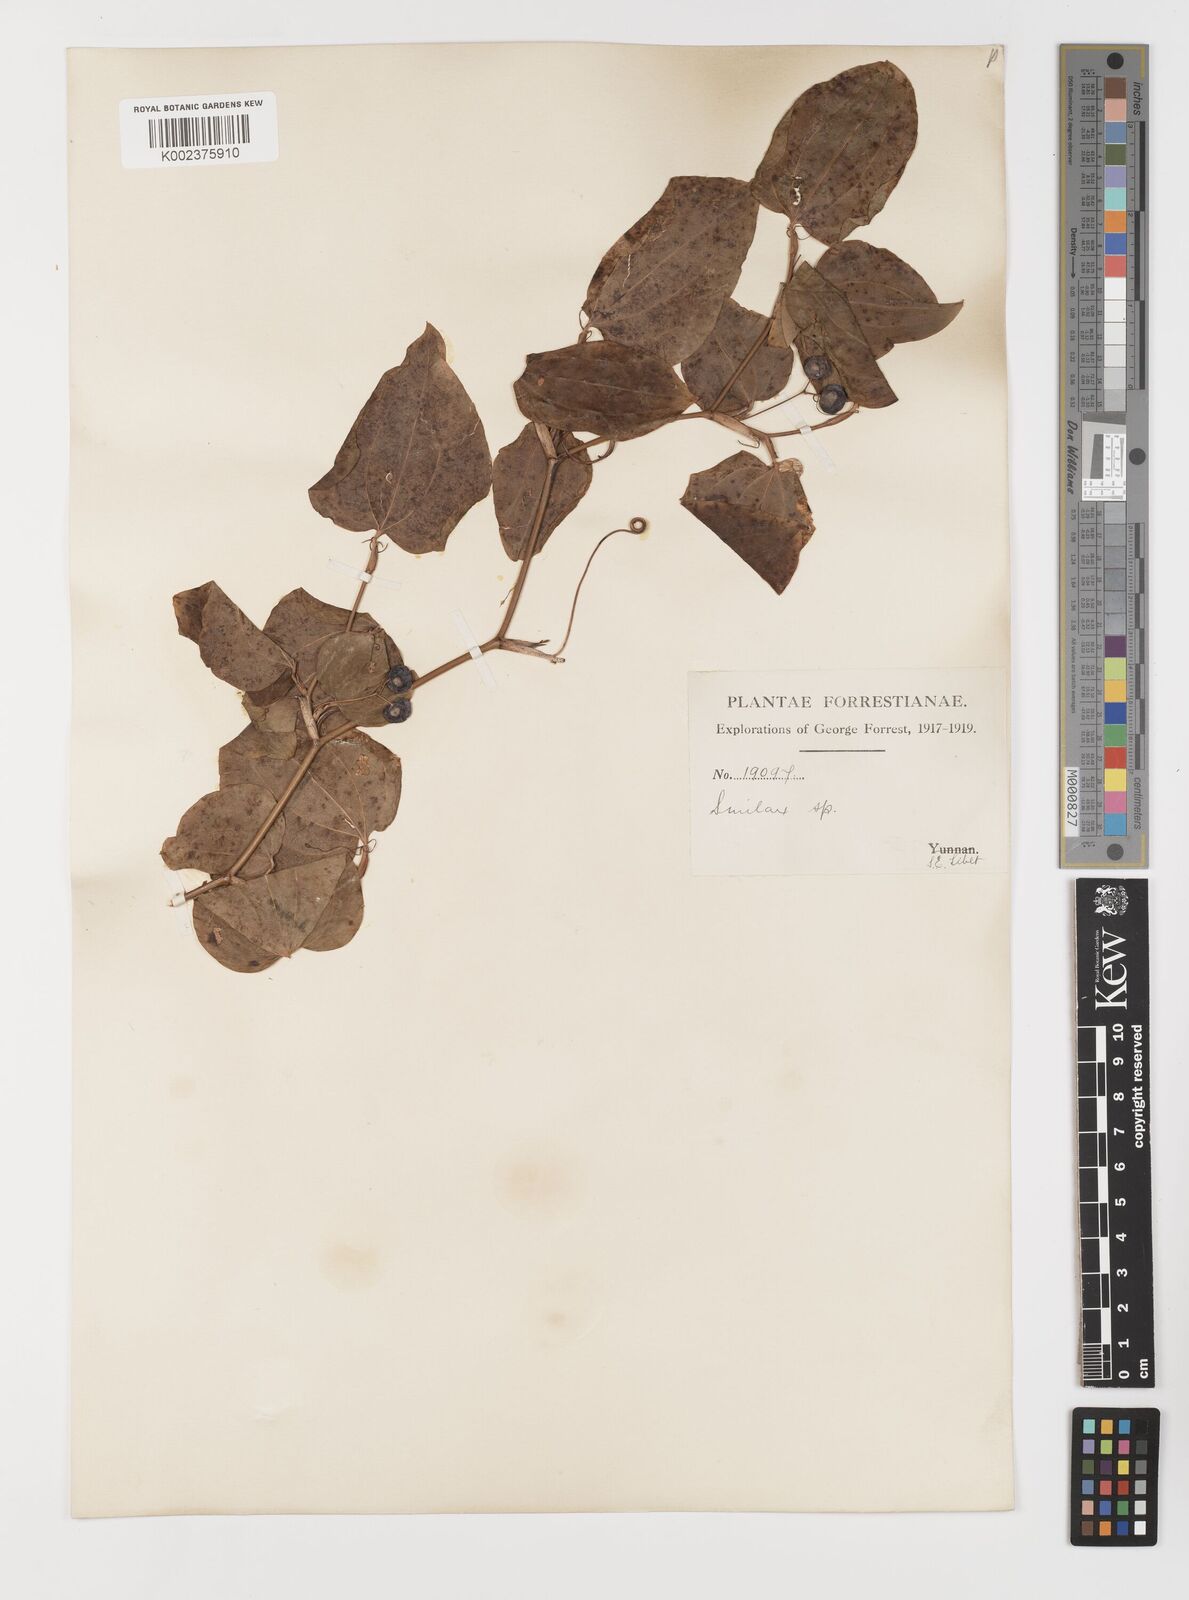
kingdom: Plantae
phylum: Tracheophyta
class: Liliopsida
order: Liliales
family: Smilacaceae
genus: Smilax
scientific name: Smilax menispermoidea
